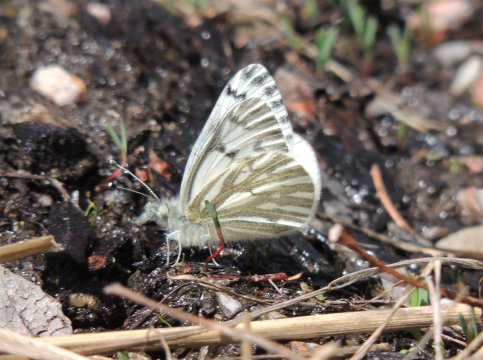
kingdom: Animalia
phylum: Arthropoda
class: Insecta
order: Lepidoptera
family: Pieridae
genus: Pontia
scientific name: Pontia sisymbrii
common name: Spring White
